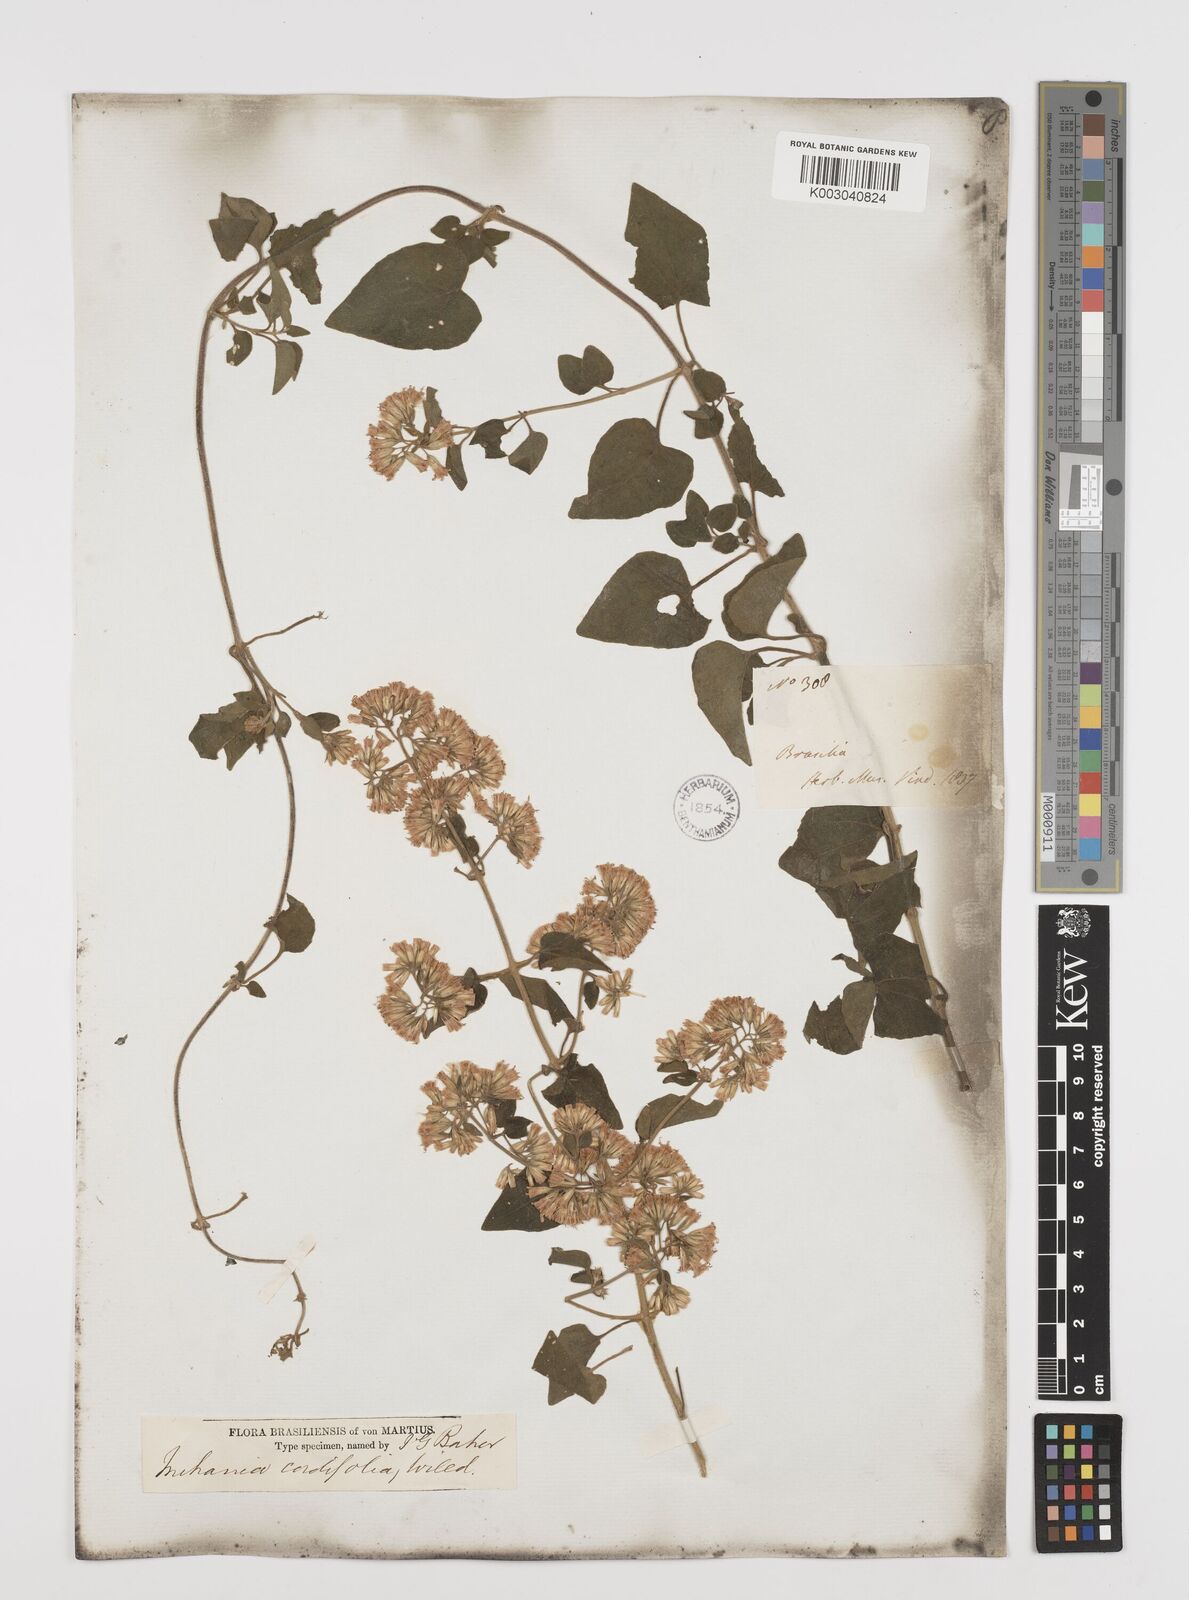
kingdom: Plantae
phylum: Tracheophyta
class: Magnoliopsida
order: Asterales
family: Asteraceae
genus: Mikania
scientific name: Mikania cordifolia
